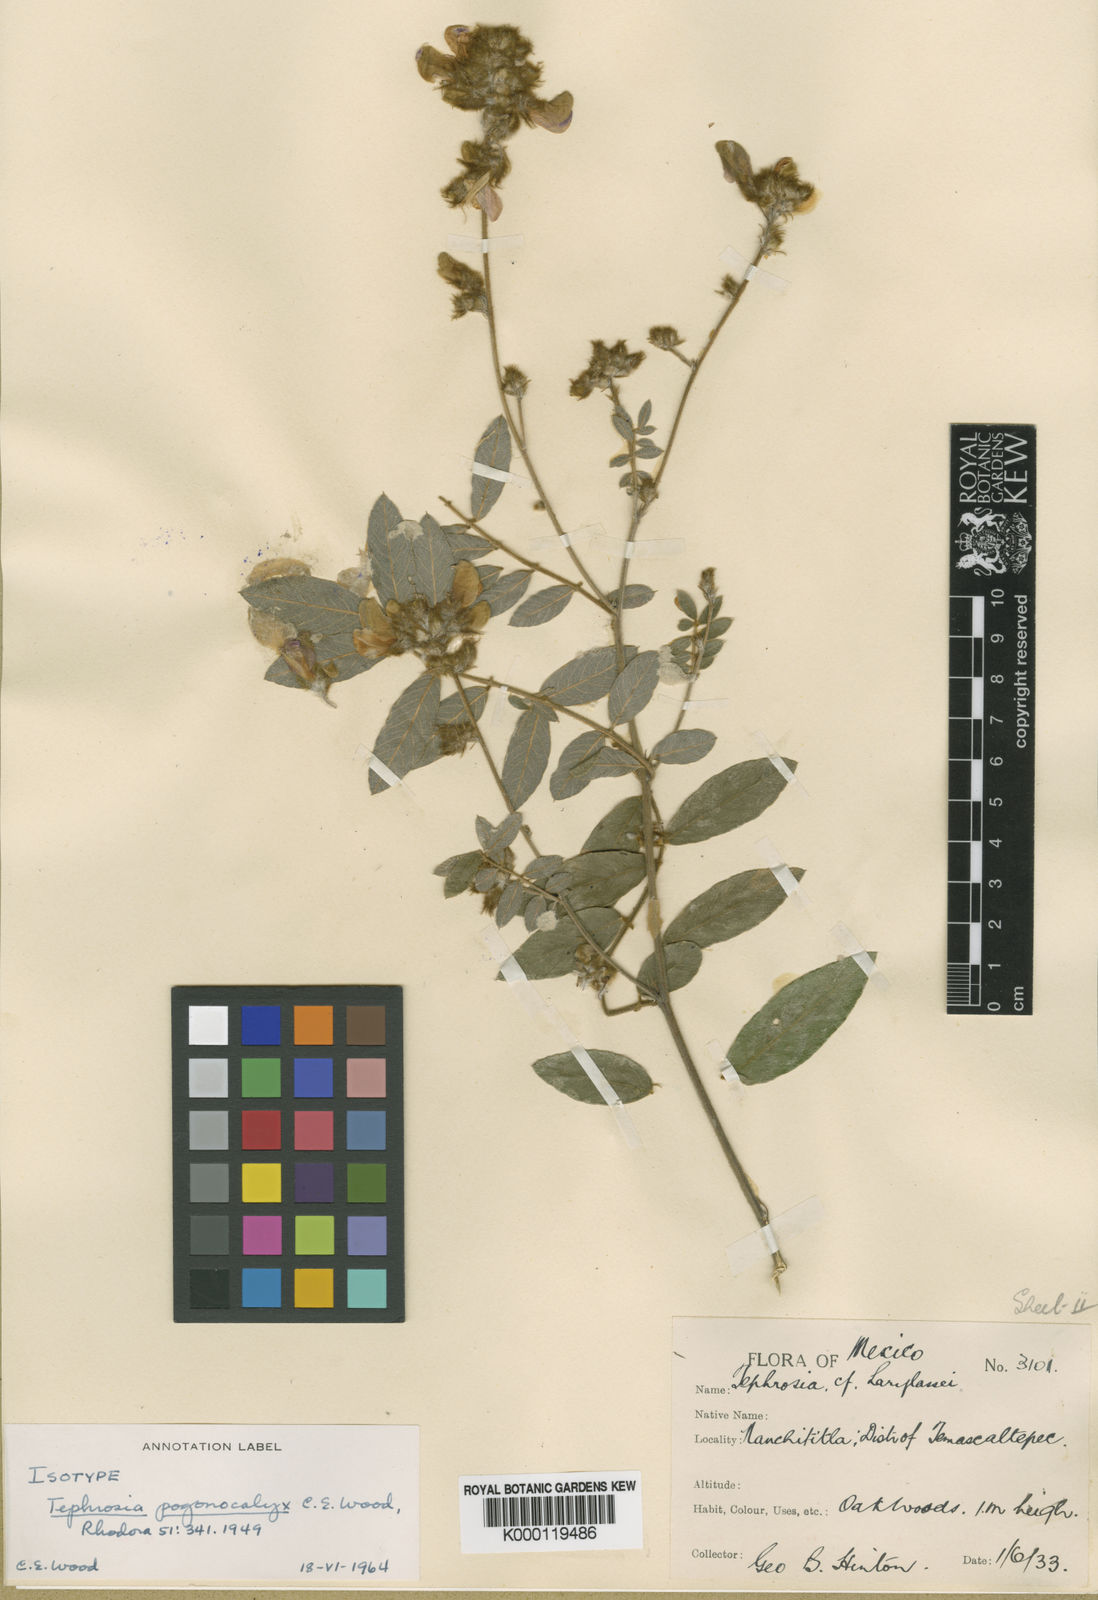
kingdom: Plantae
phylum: Tracheophyta
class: Magnoliopsida
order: Fabales
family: Fabaceae
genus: Tephrosia
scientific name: Tephrosia pogonocalyx
